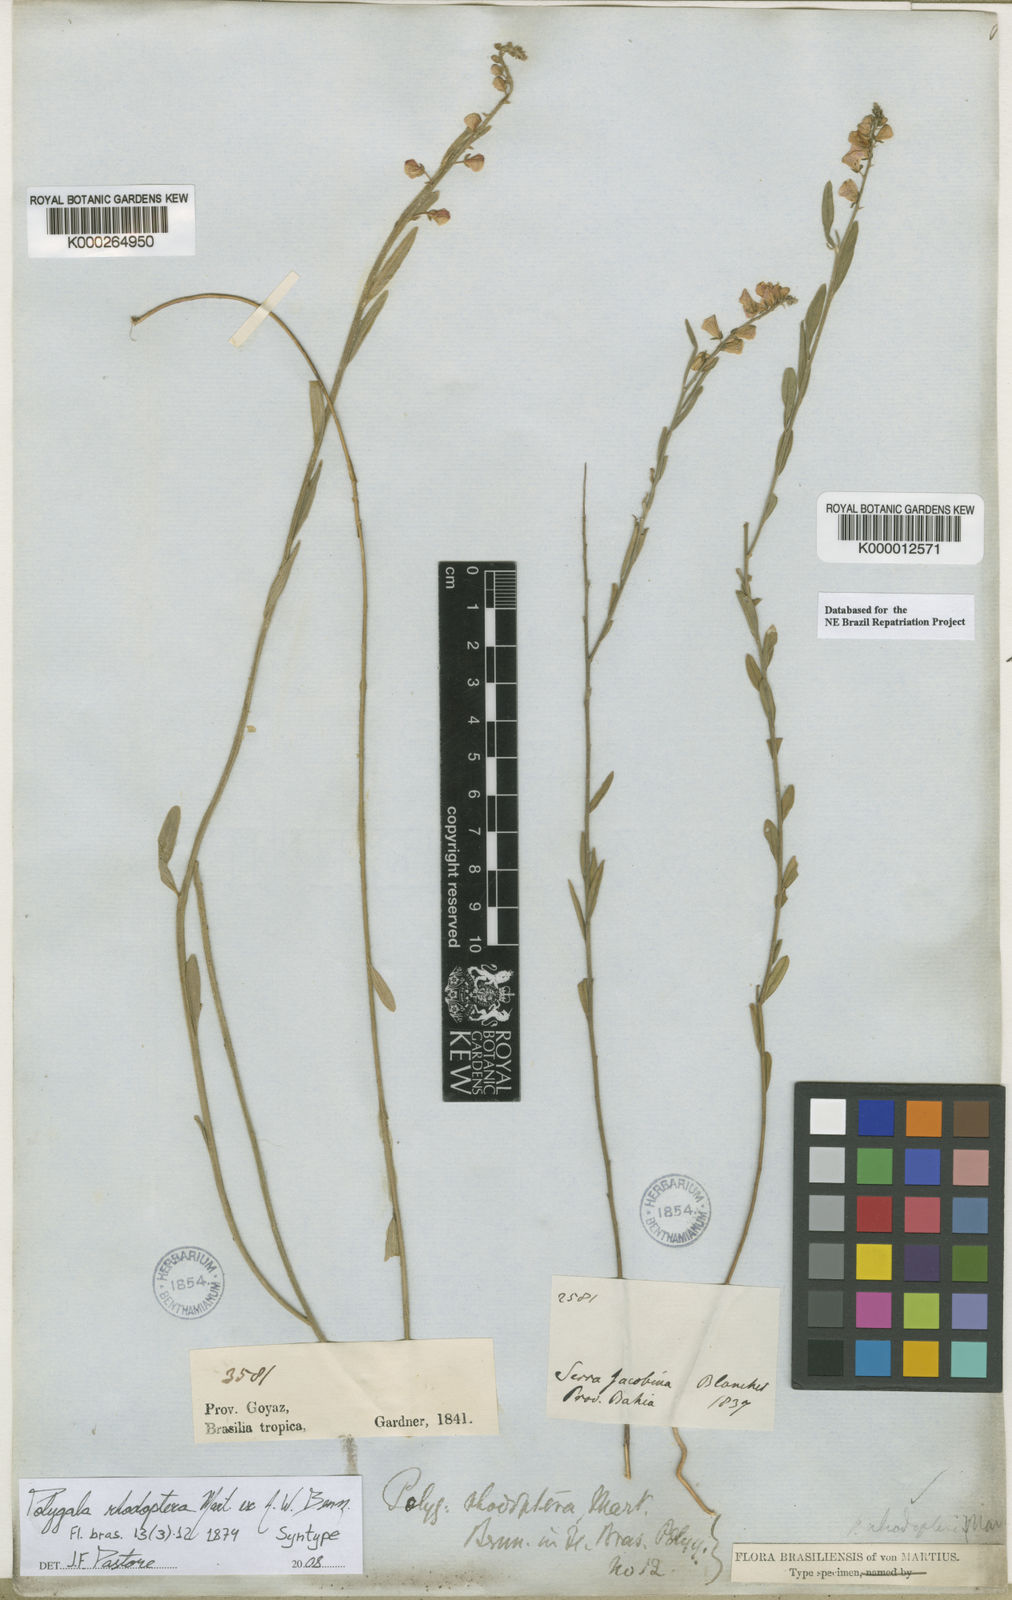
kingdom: Plantae
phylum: Tracheophyta
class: Magnoliopsida
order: Fabales
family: Polygalaceae
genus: Asemeia
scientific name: Asemeia rhodoptera
